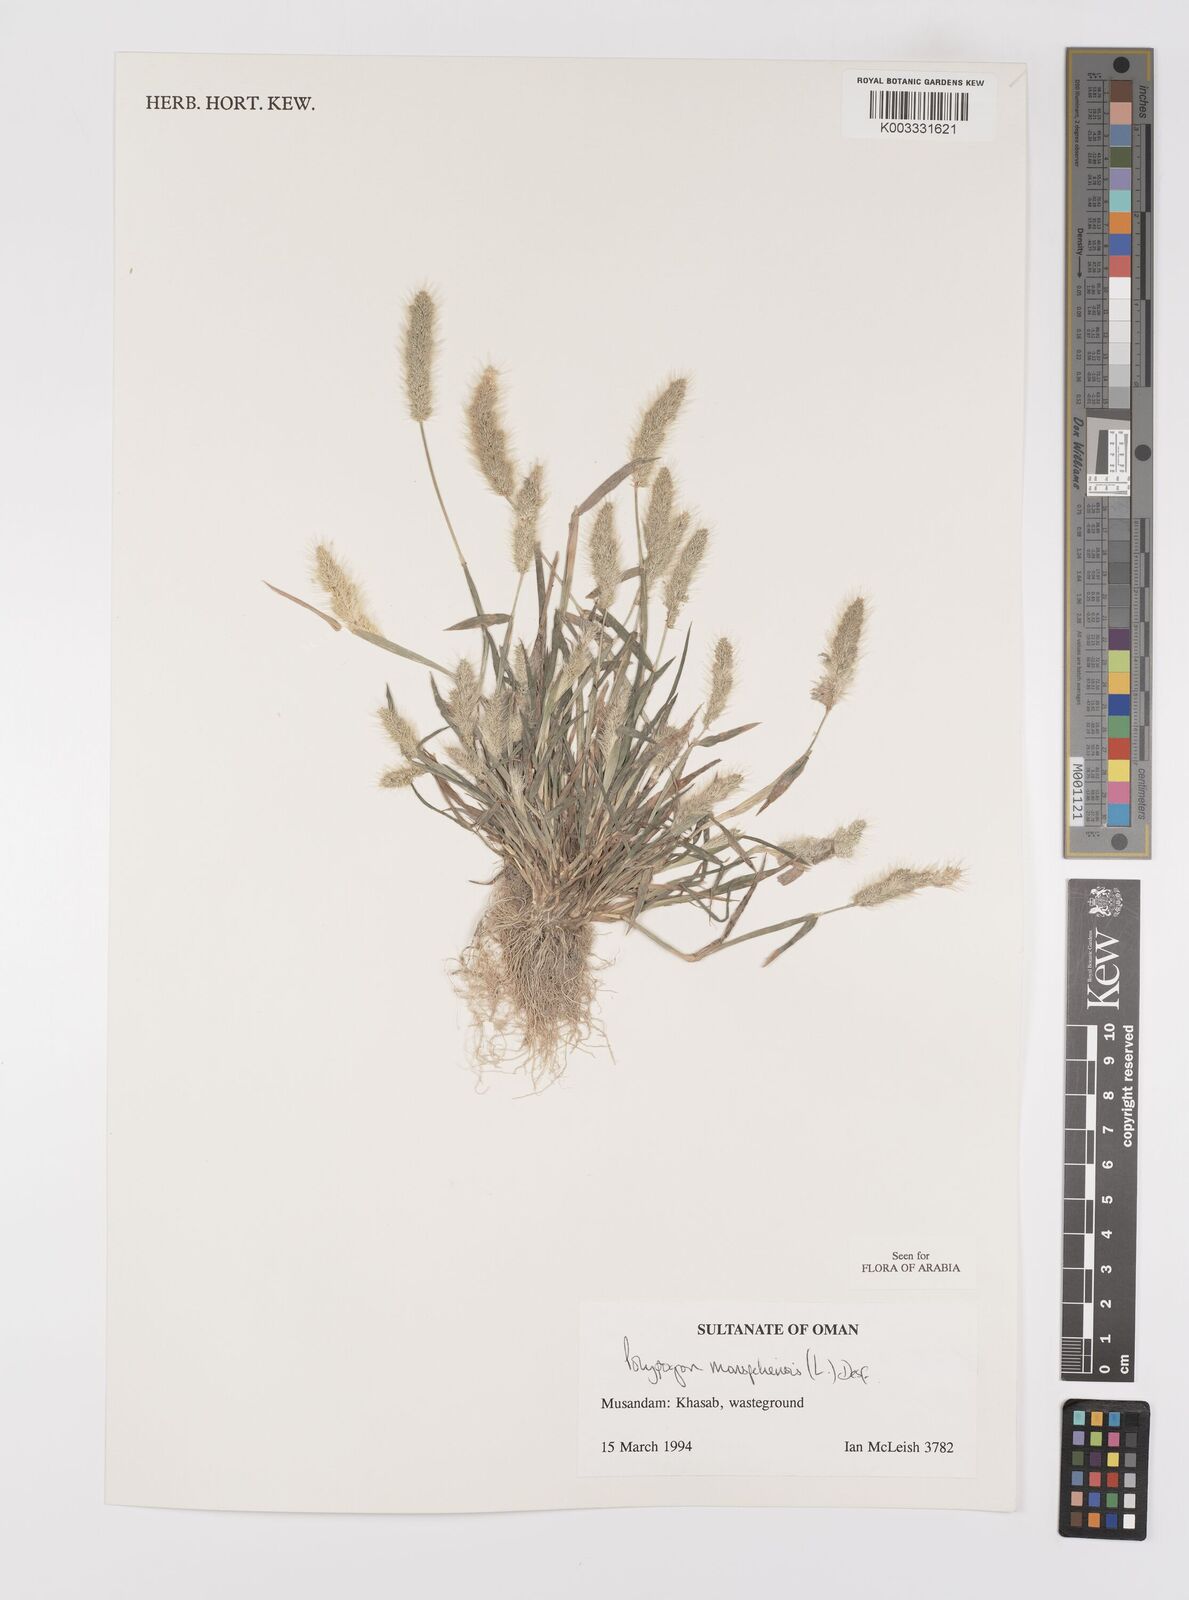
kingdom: Plantae
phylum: Tracheophyta
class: Liliopsida
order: Poales
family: Poaceae
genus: Polypogon
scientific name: Polypogon monspeliensis
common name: Annual rabbitsfoot grass
